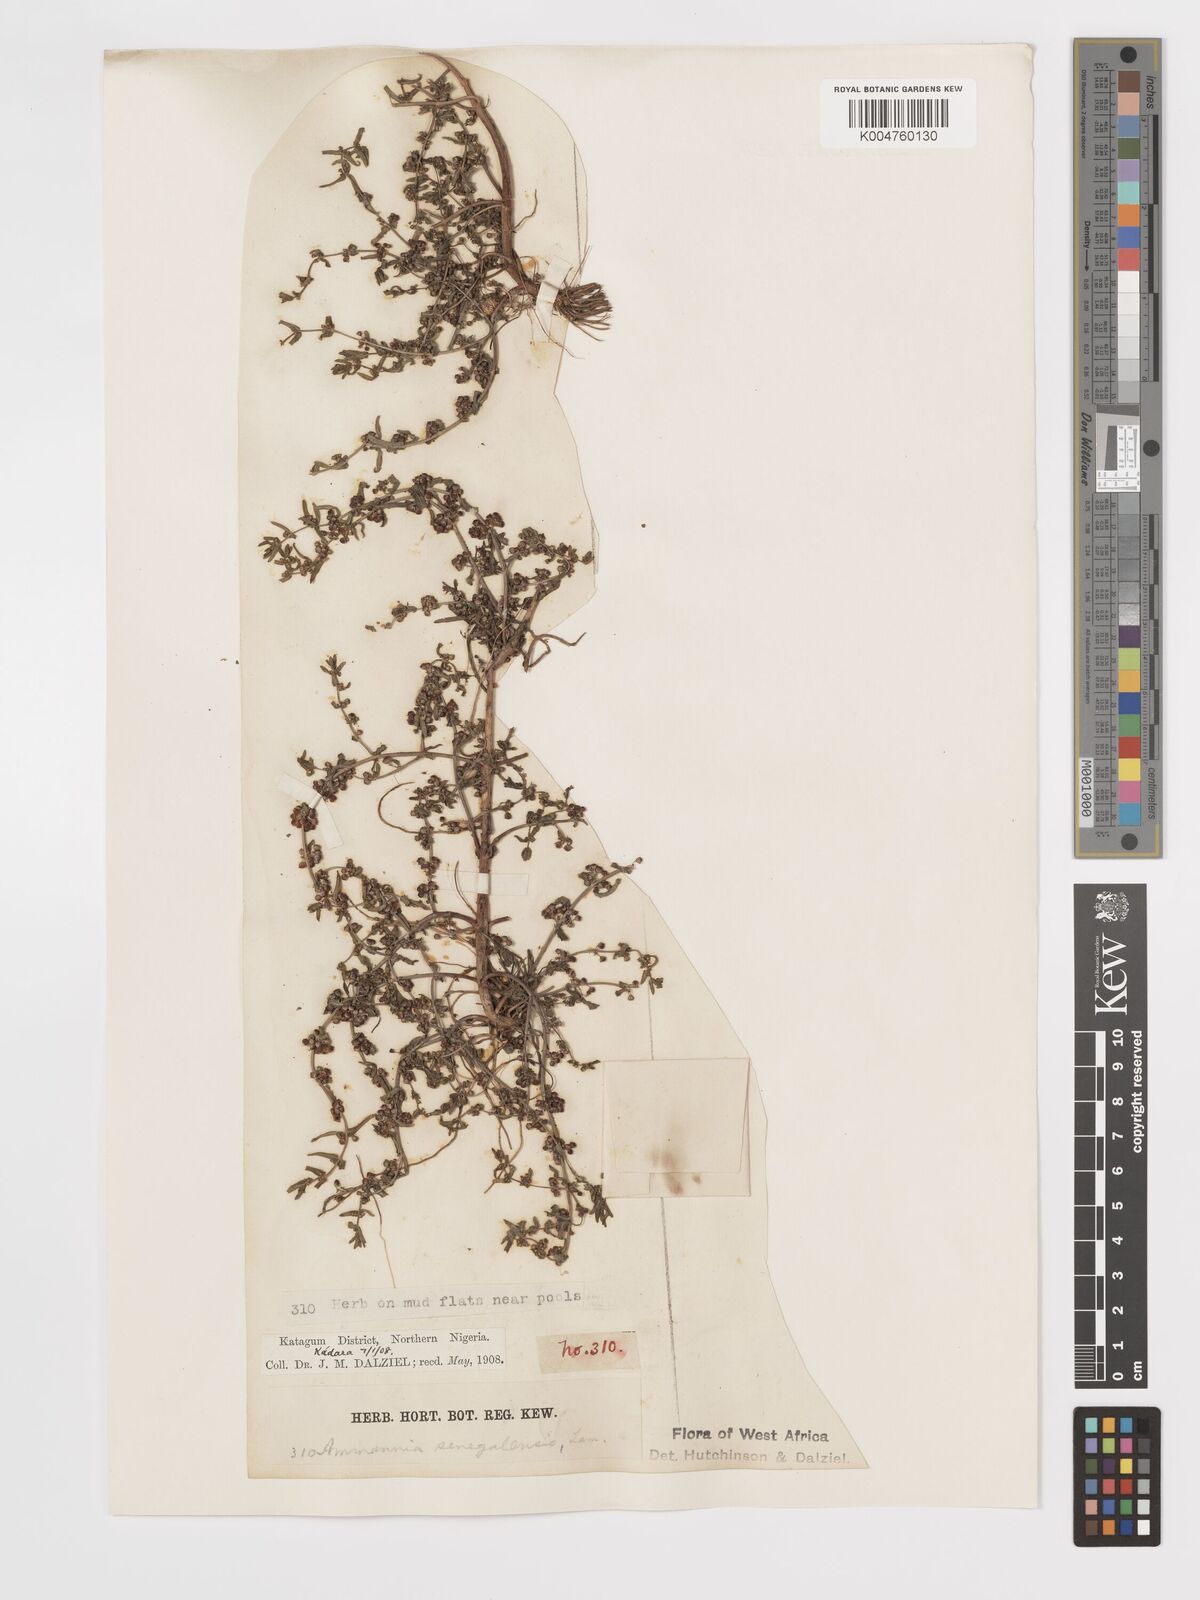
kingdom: Plantae
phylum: Tracheophyta
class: Magnoliopsida
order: Myrtales
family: Lythraceae
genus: Ammannia
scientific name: Ammannia senegalensis
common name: Red ammannia
